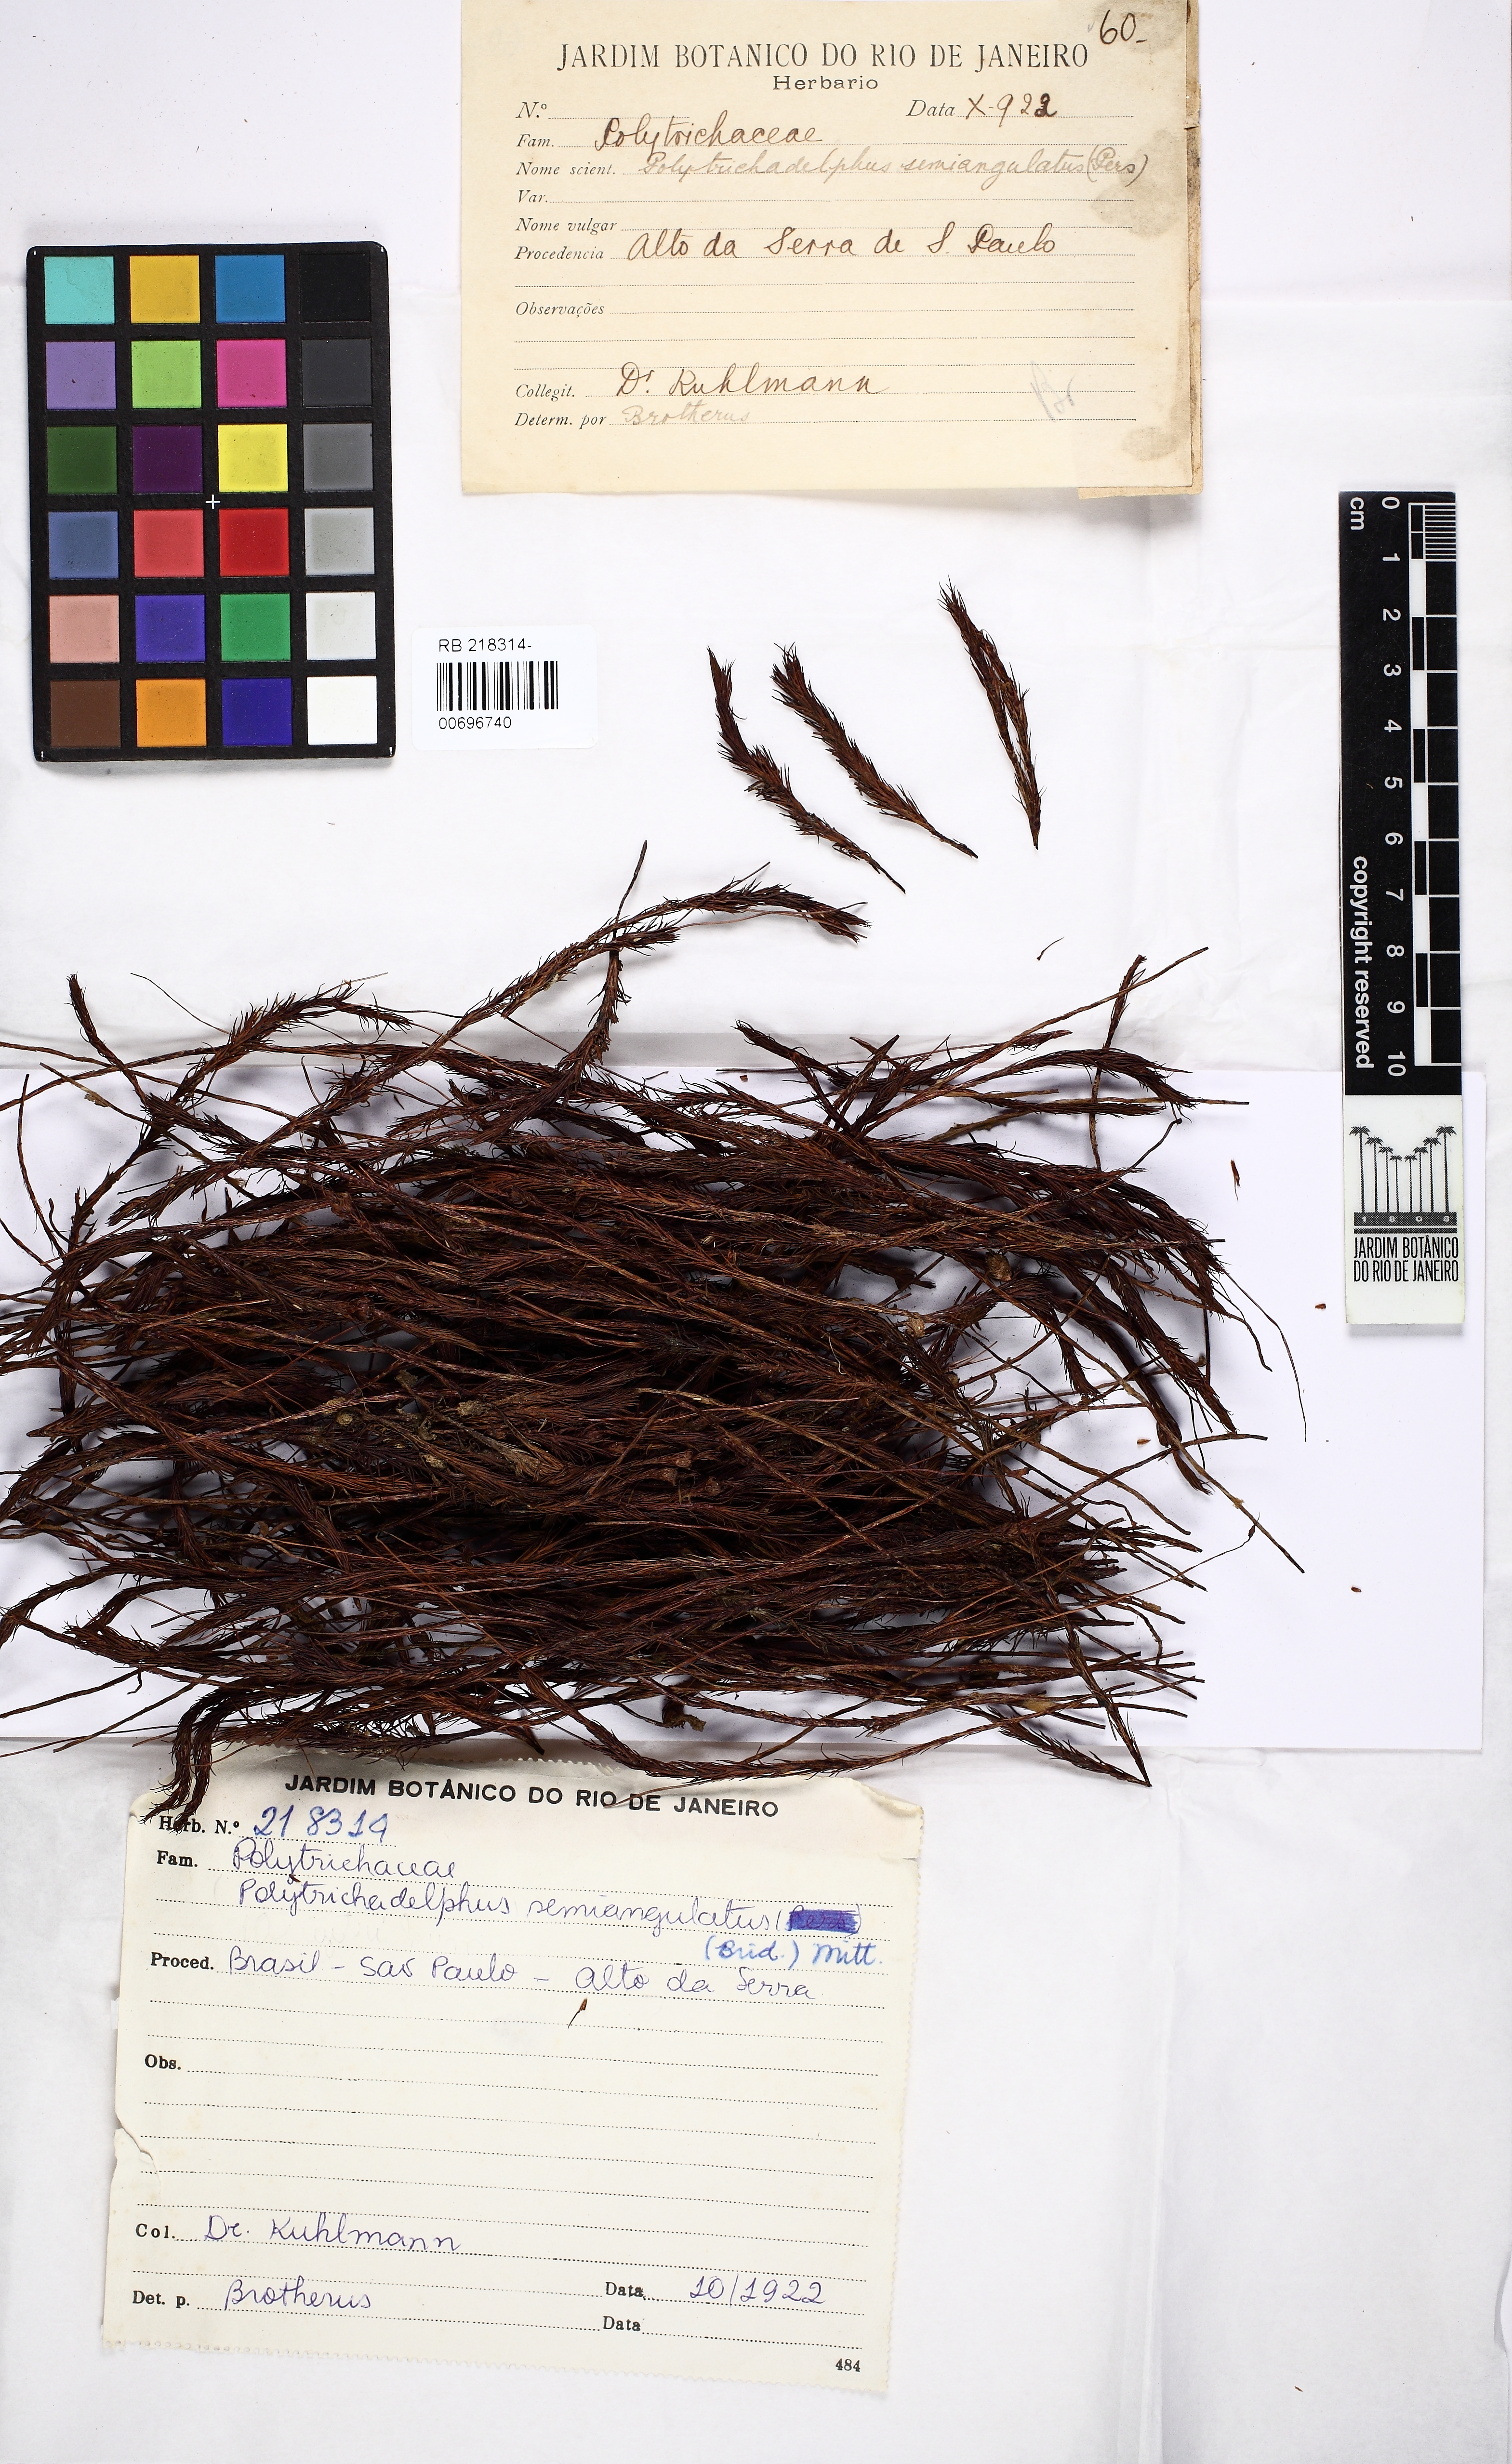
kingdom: Plantae
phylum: Bryophyta
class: Polytrichopsida
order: Polytrichales
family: Polytrichaceae
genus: Polytrichadelphus
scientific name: Polytrichadelphus pseudopolytrichum
